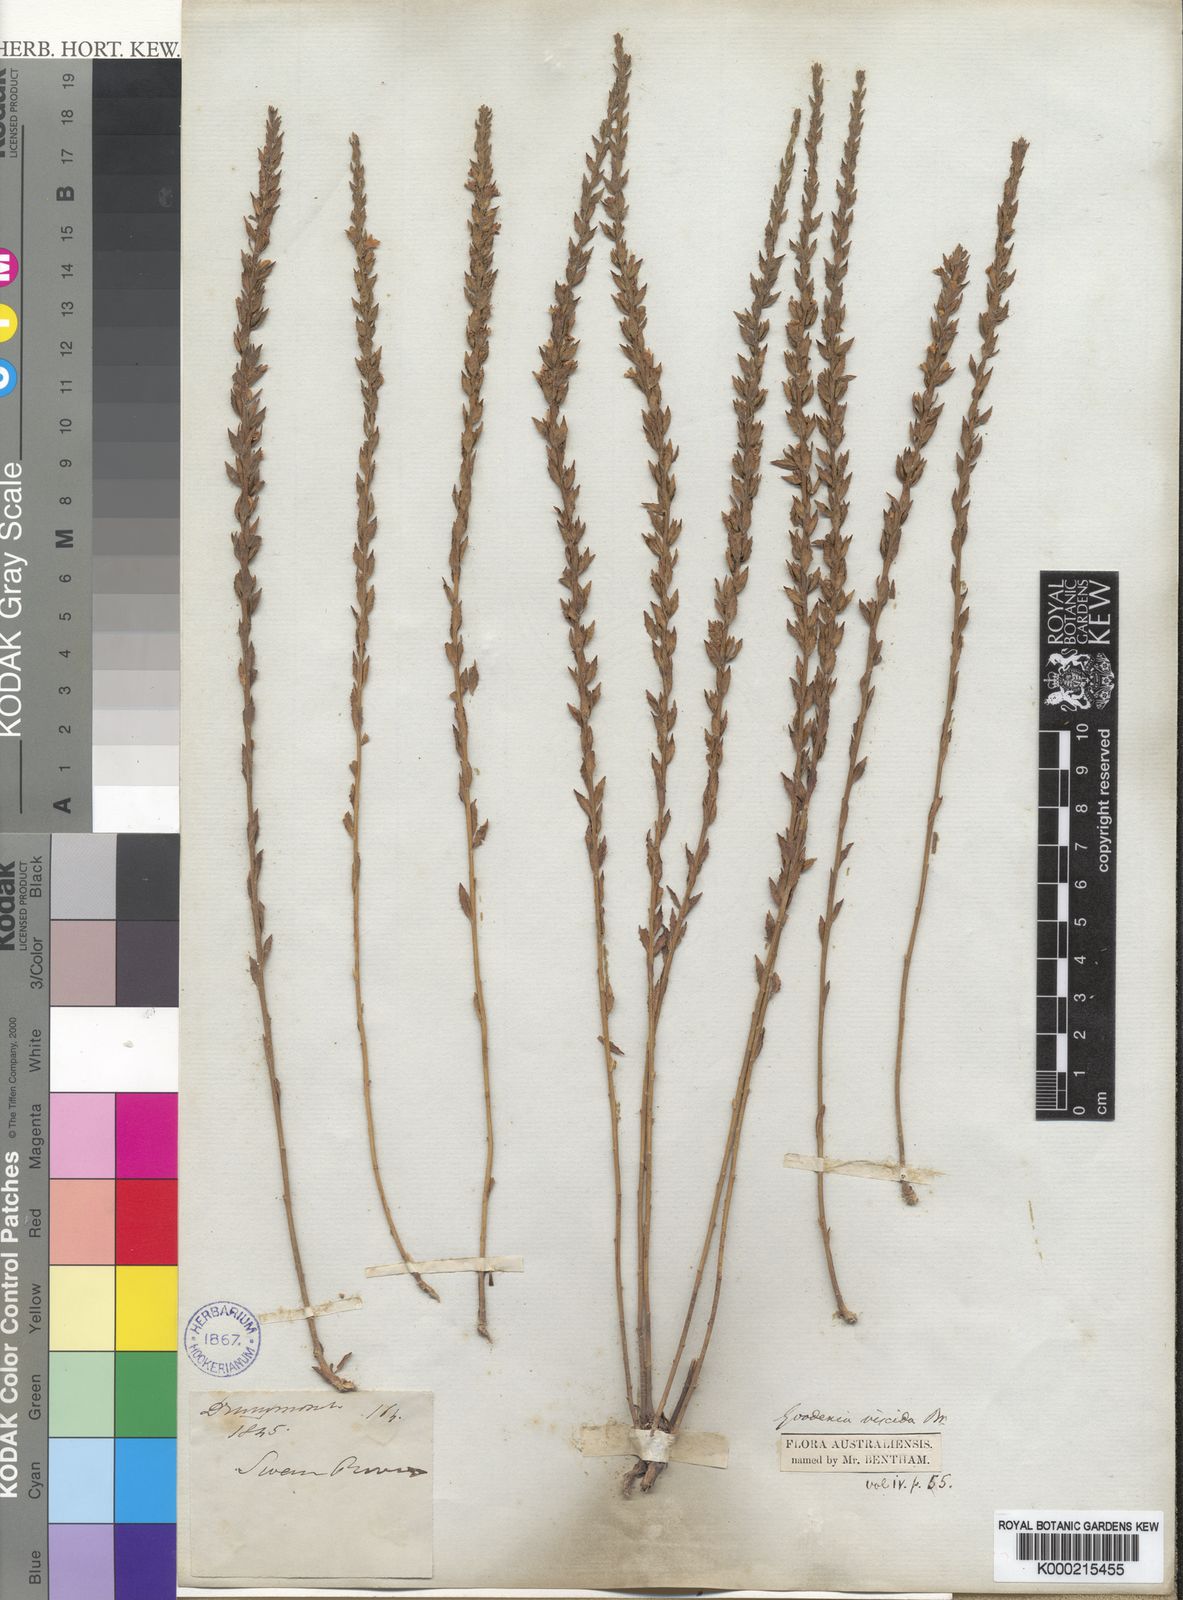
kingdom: Plantae
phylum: Tracheophyta
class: Magnoliopsida
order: Asterales
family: Goodeniaceae
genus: Goodenia
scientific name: Goodenia viscida
